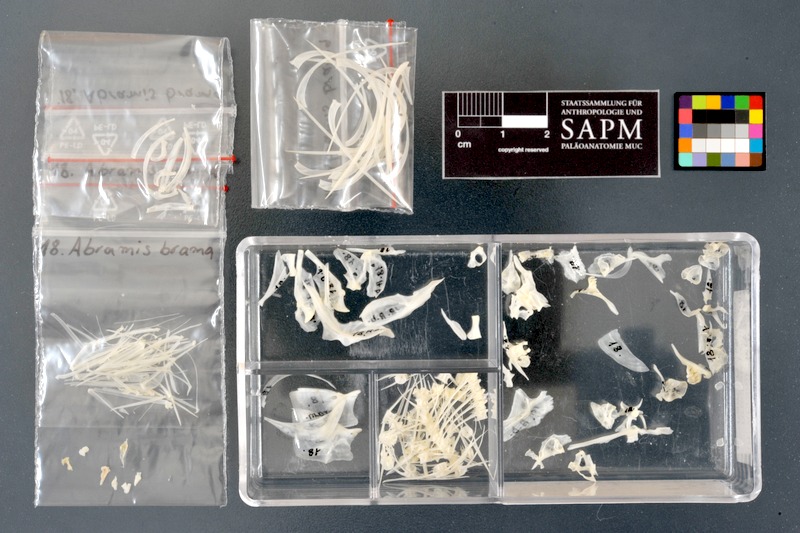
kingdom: Animalia
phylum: Chordata
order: Cypriniformes
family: Cyprinidae
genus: Abramis
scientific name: Abramis brama
